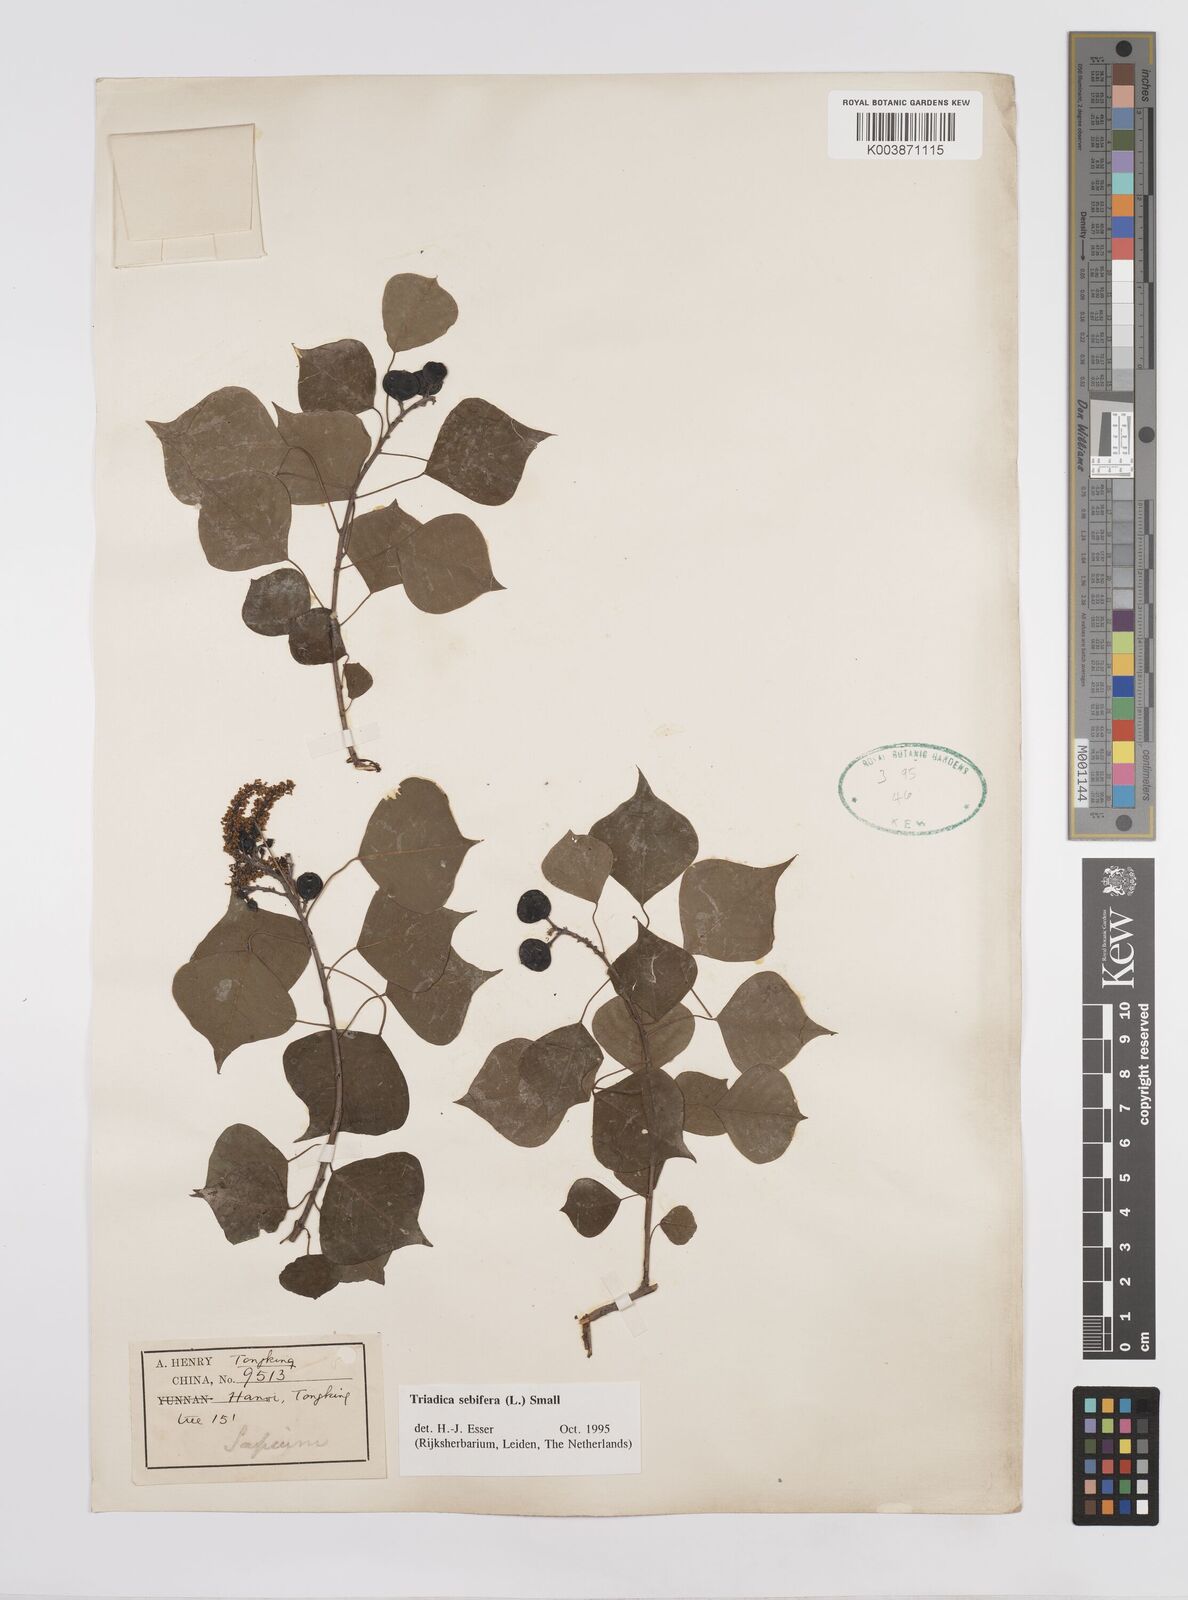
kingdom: Plantae
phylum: Tracheophyta
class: Magnoliopsida
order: Malpighiales
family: Euphorbiaceae
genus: Triadica
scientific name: Triadica sebifera
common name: Chinese tallow
